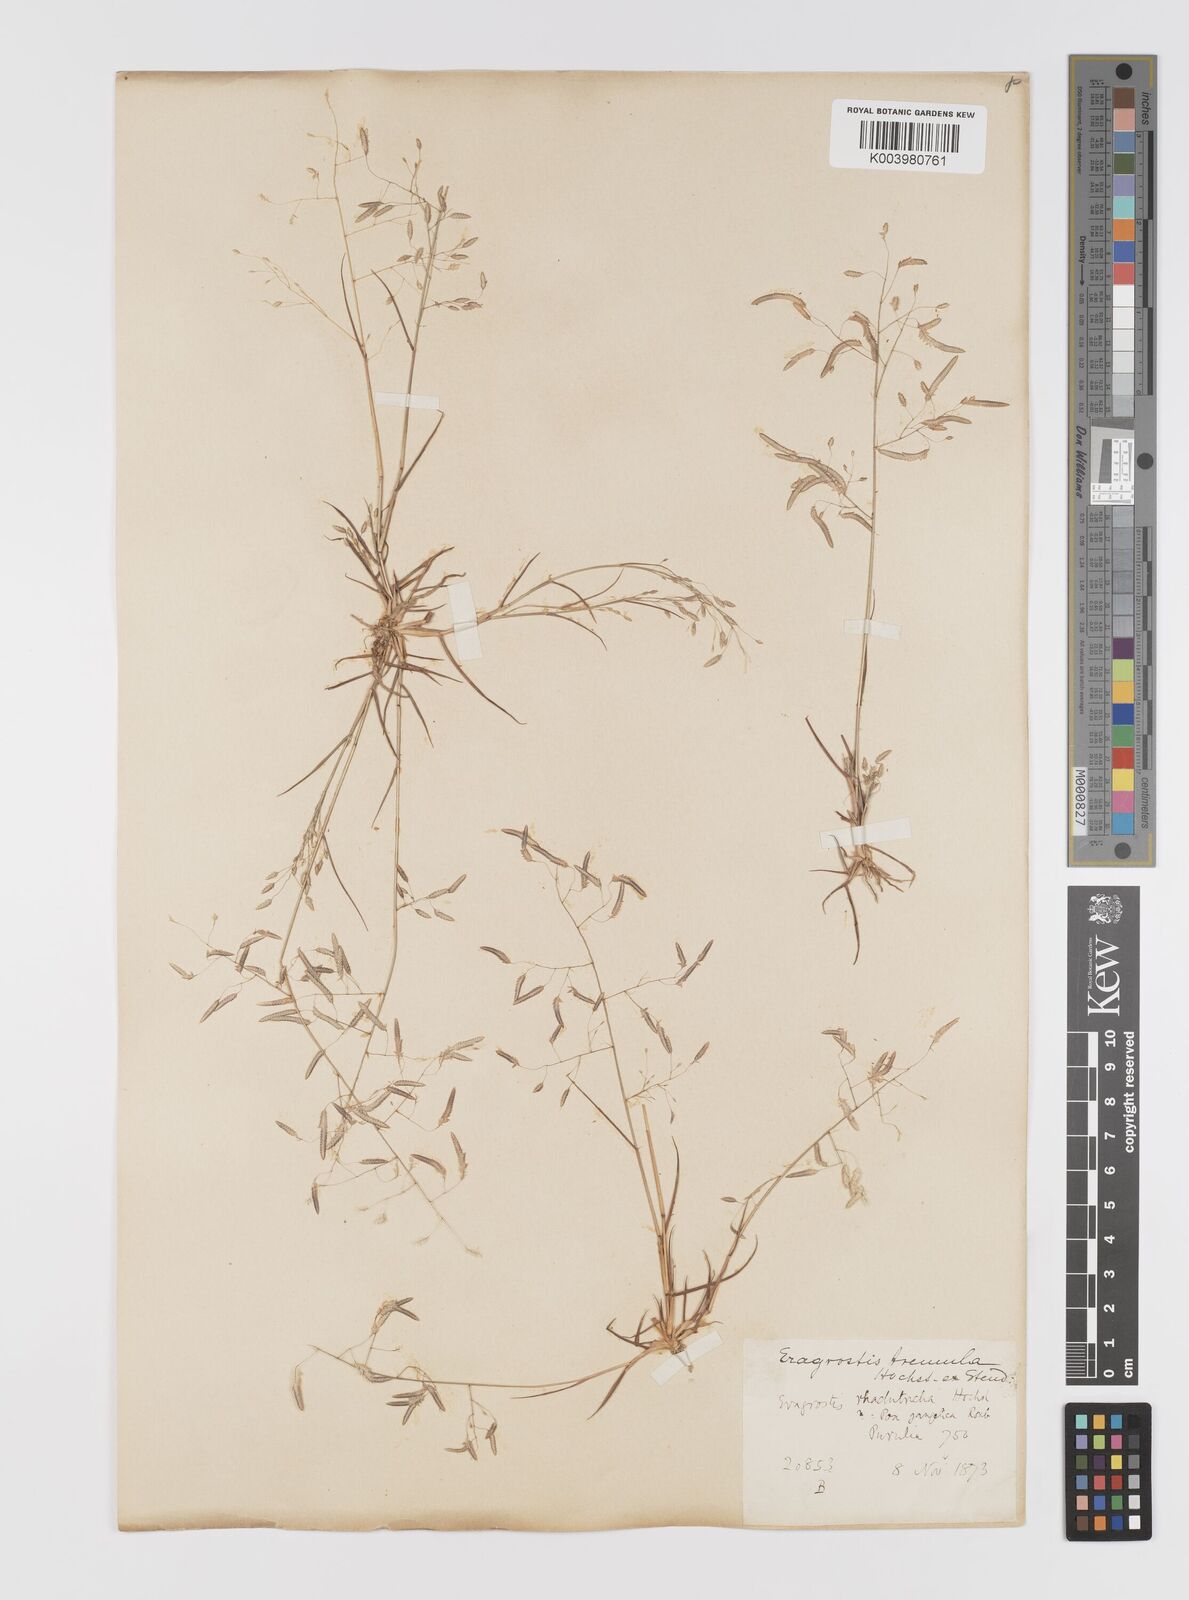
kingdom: Plantae
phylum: Tracheophyta
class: Liliopsida
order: Poales
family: Poaceae
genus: Eragrostis
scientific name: Eragrostis tremula
